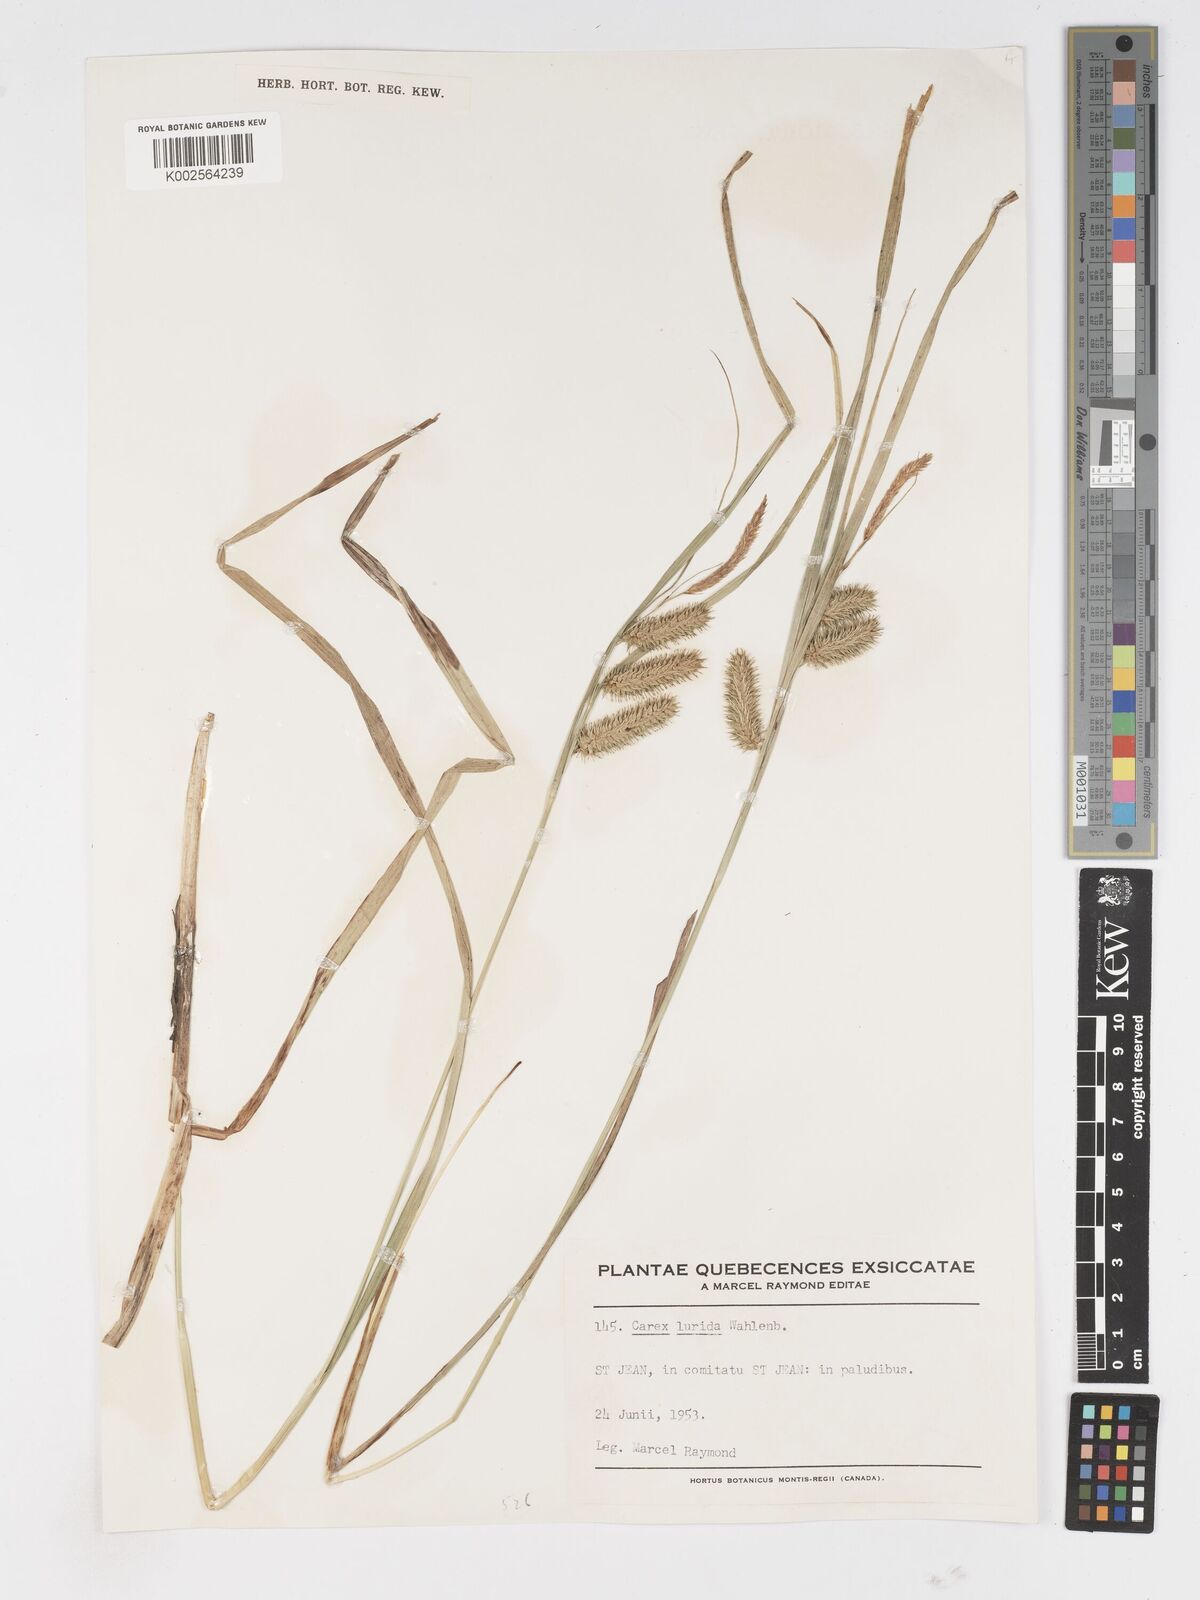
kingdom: Plantae
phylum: Tracheophyta
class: Liliopsida
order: Poales
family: Cyperaceae
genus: Carex
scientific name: Carex lurida
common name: Sallow sedge
